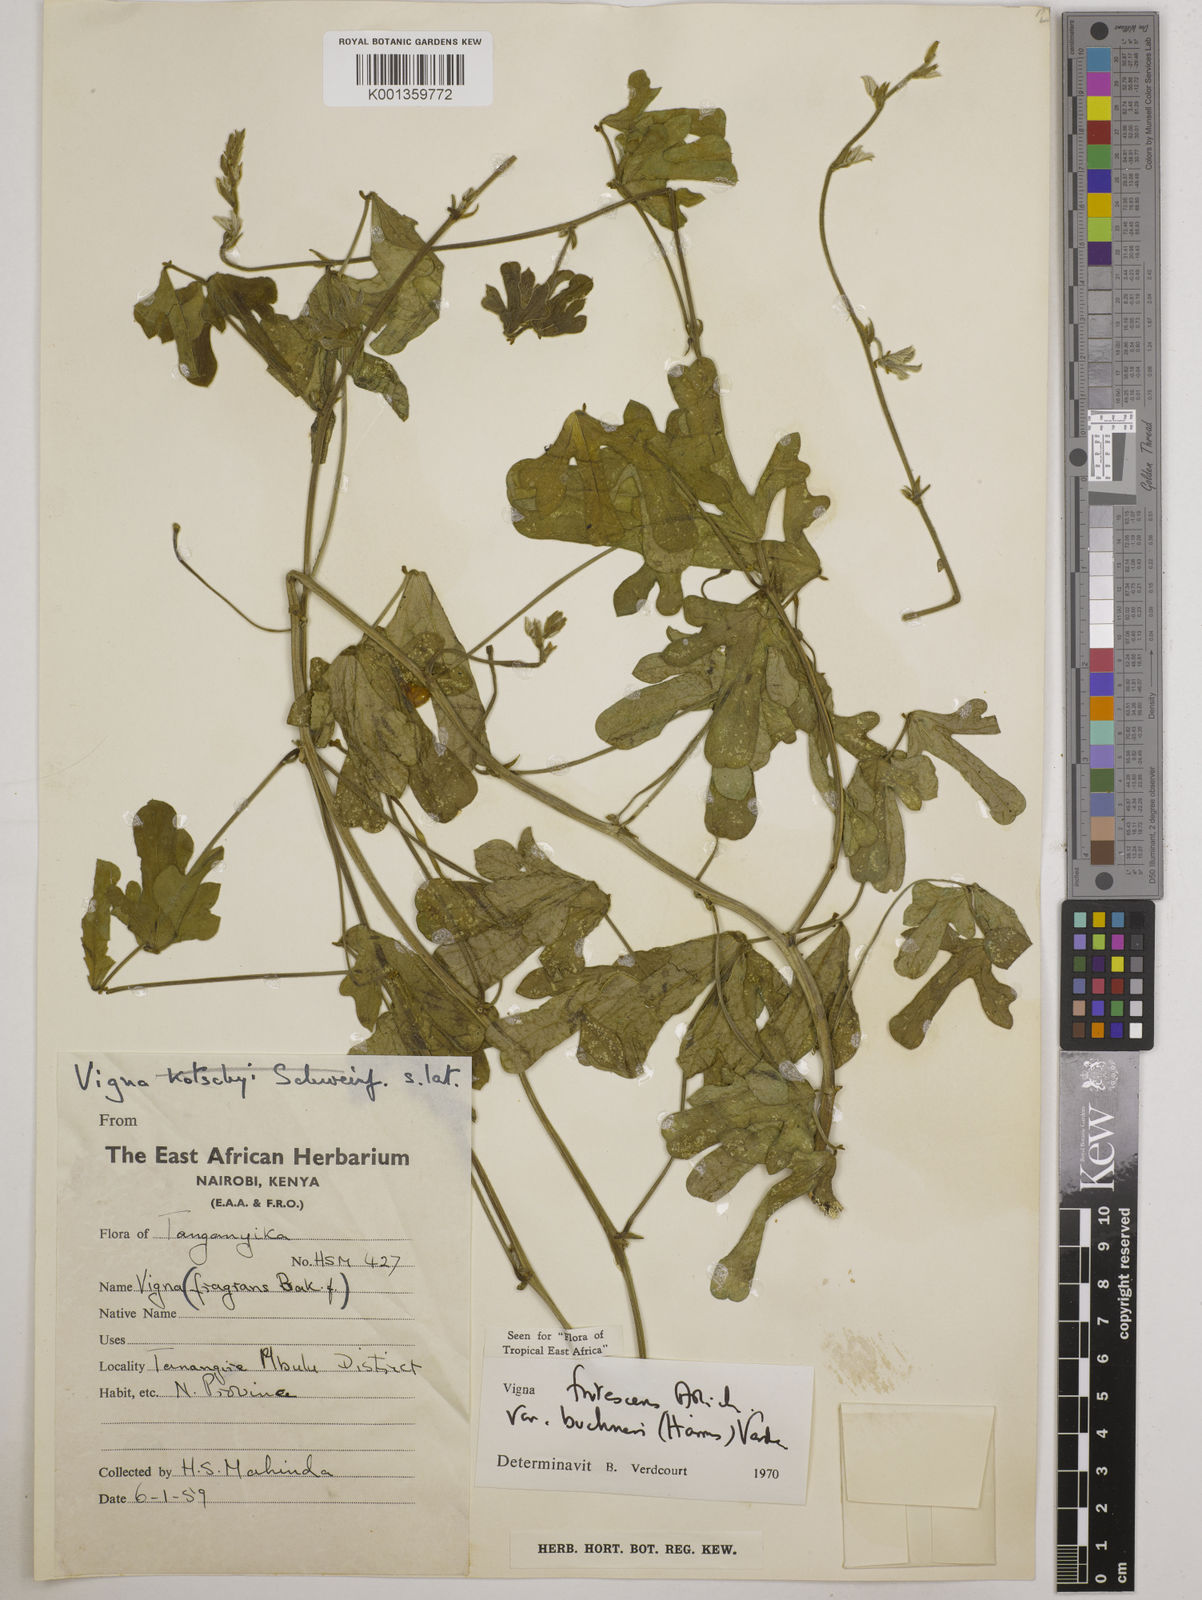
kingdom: Plantae
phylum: Tracheophyta
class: Magnoliopsida
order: Fabales
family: Fabaceae
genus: Vigna
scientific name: Vigna
